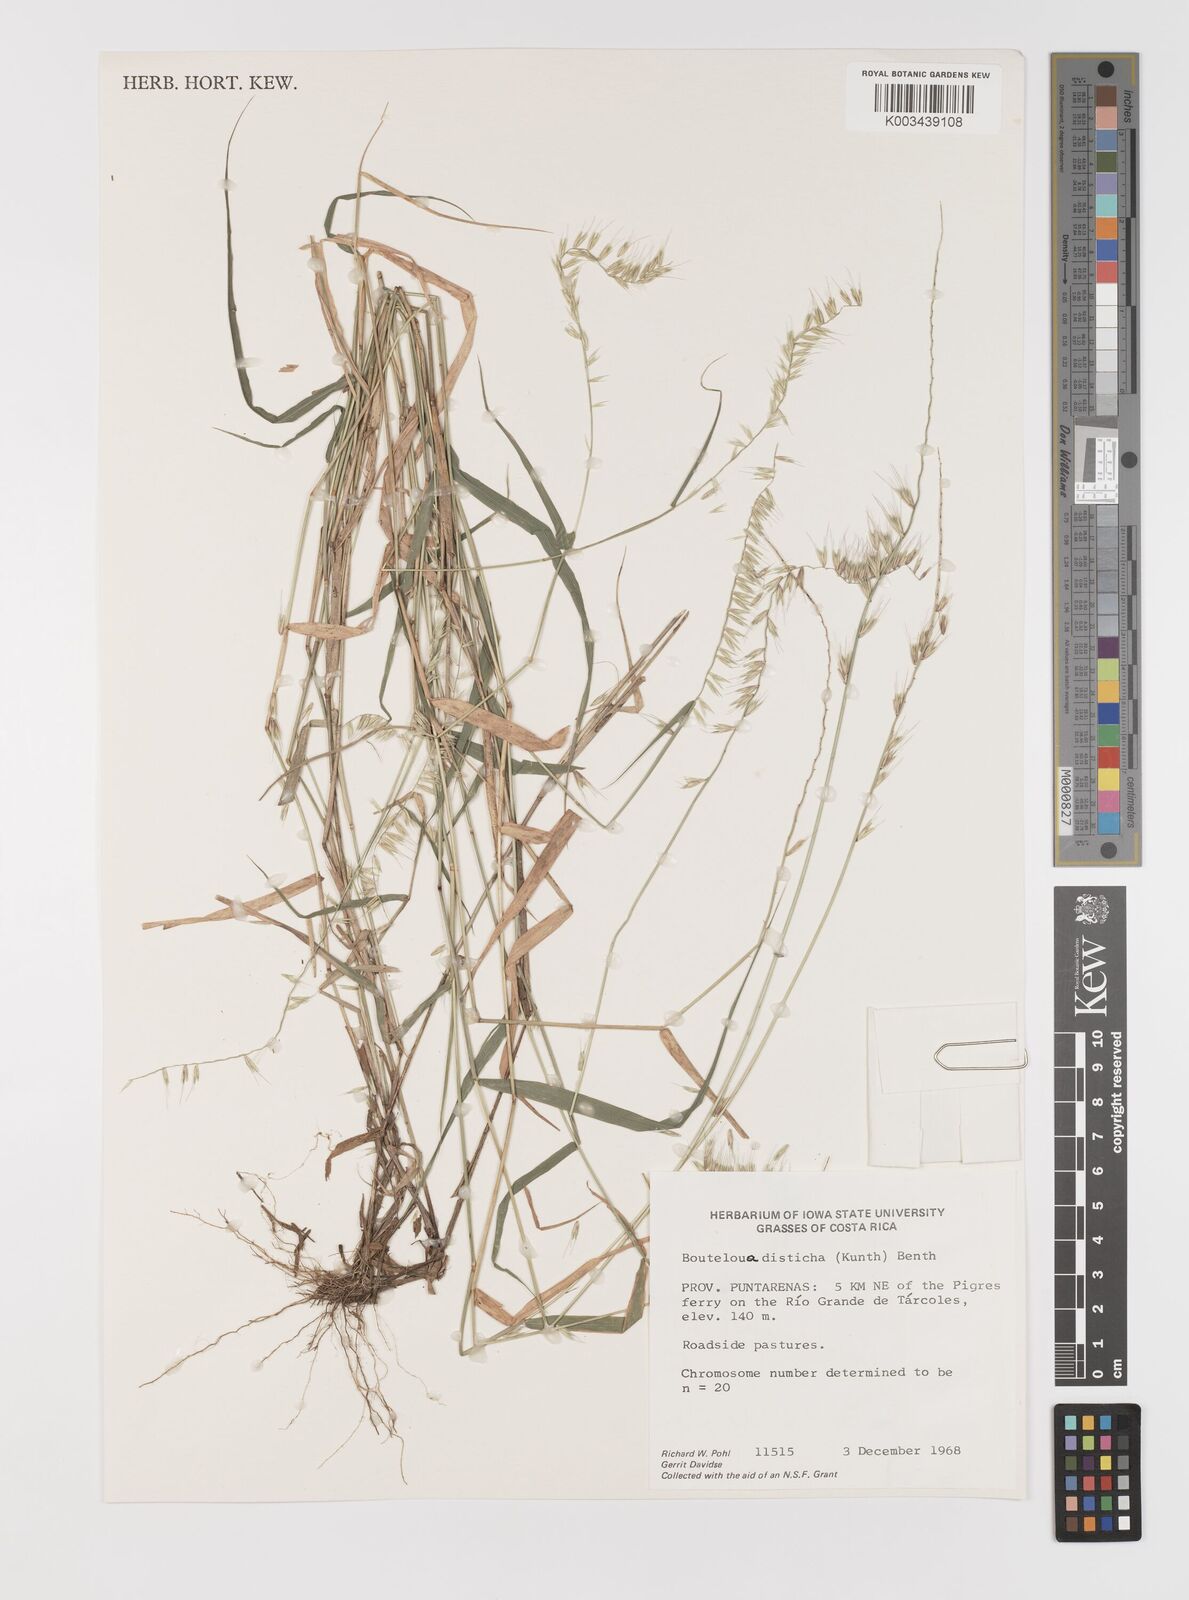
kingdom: Plantae
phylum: Tracheophyta
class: Liliopsida
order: Poales
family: Poaceae
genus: Bouteloua
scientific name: Bouteloua disticha
